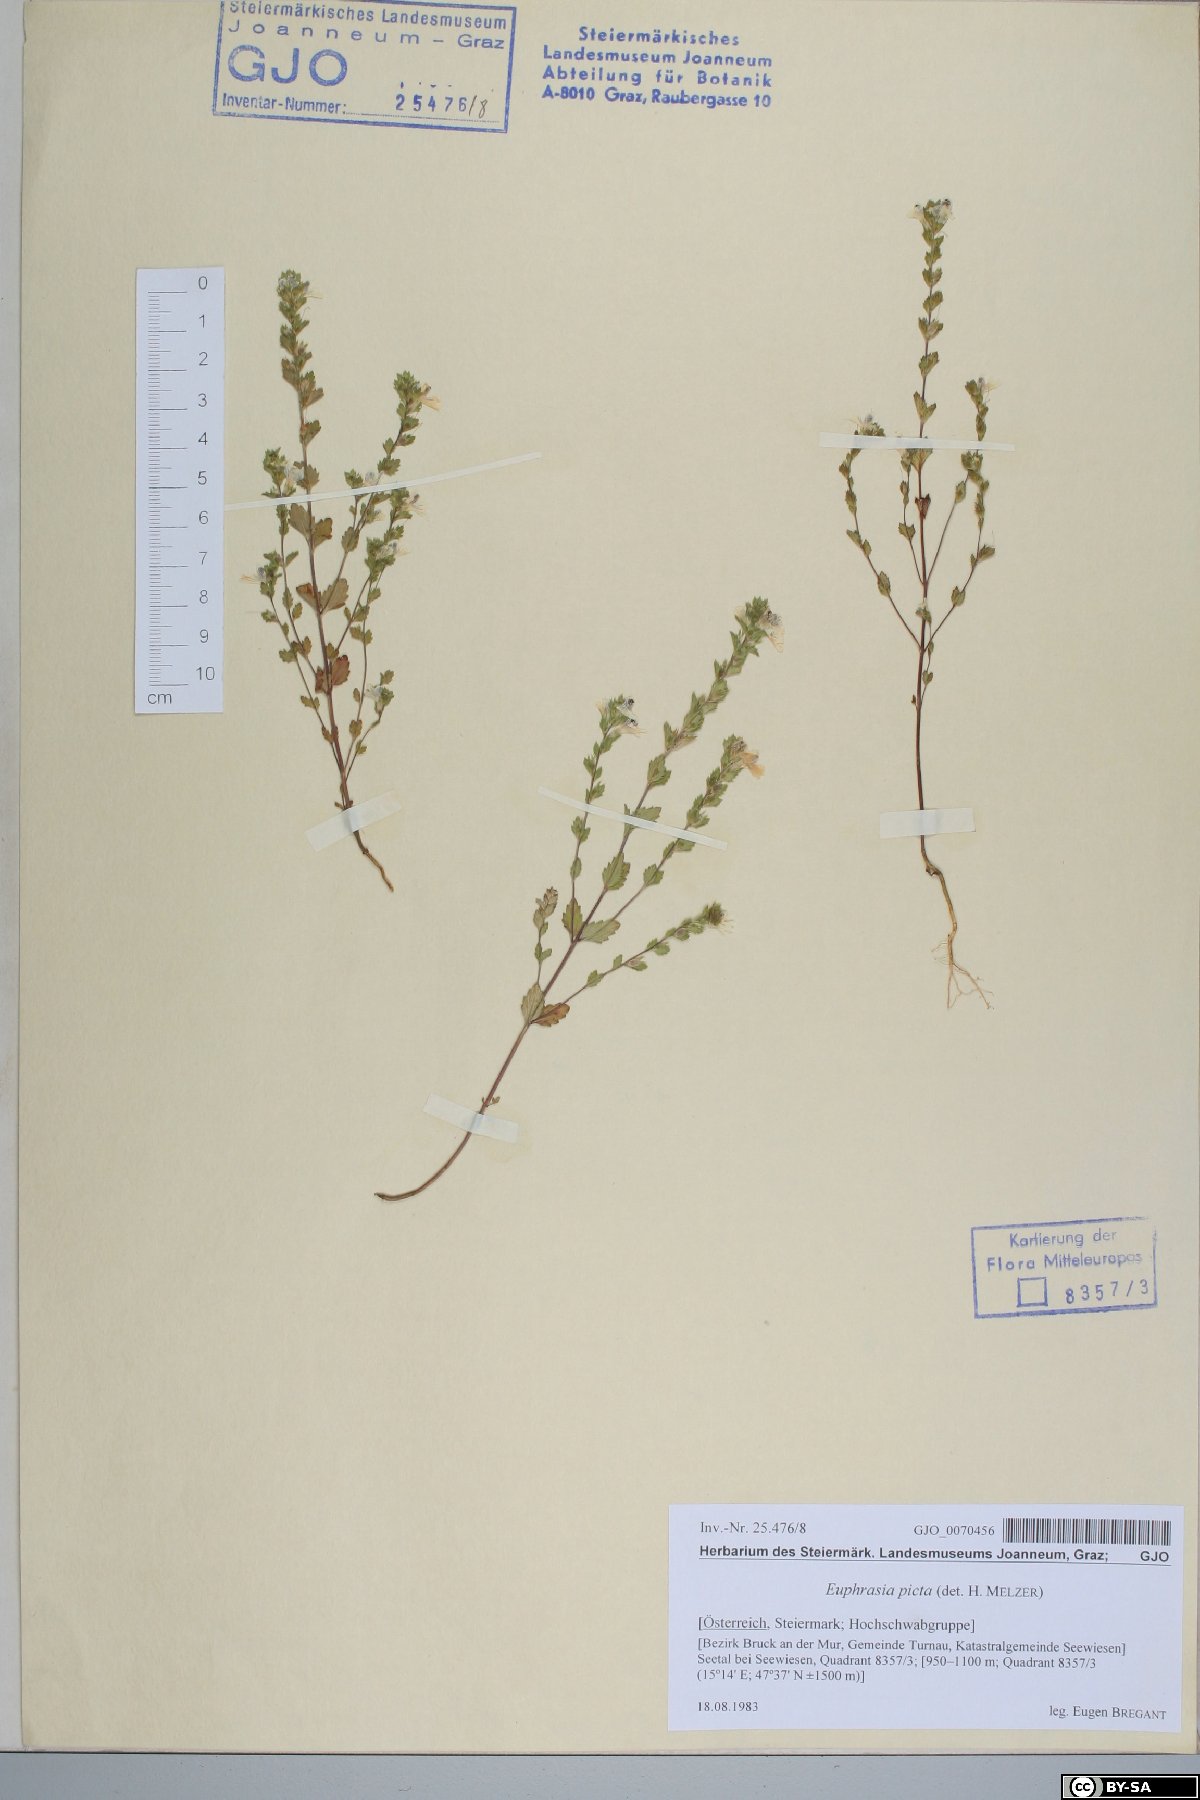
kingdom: Plantae
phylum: Tracheophyta
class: Magnoliopsida
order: Lamiales
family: Orobanchaceae
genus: Euphrasia
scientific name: Euphrasia picta
